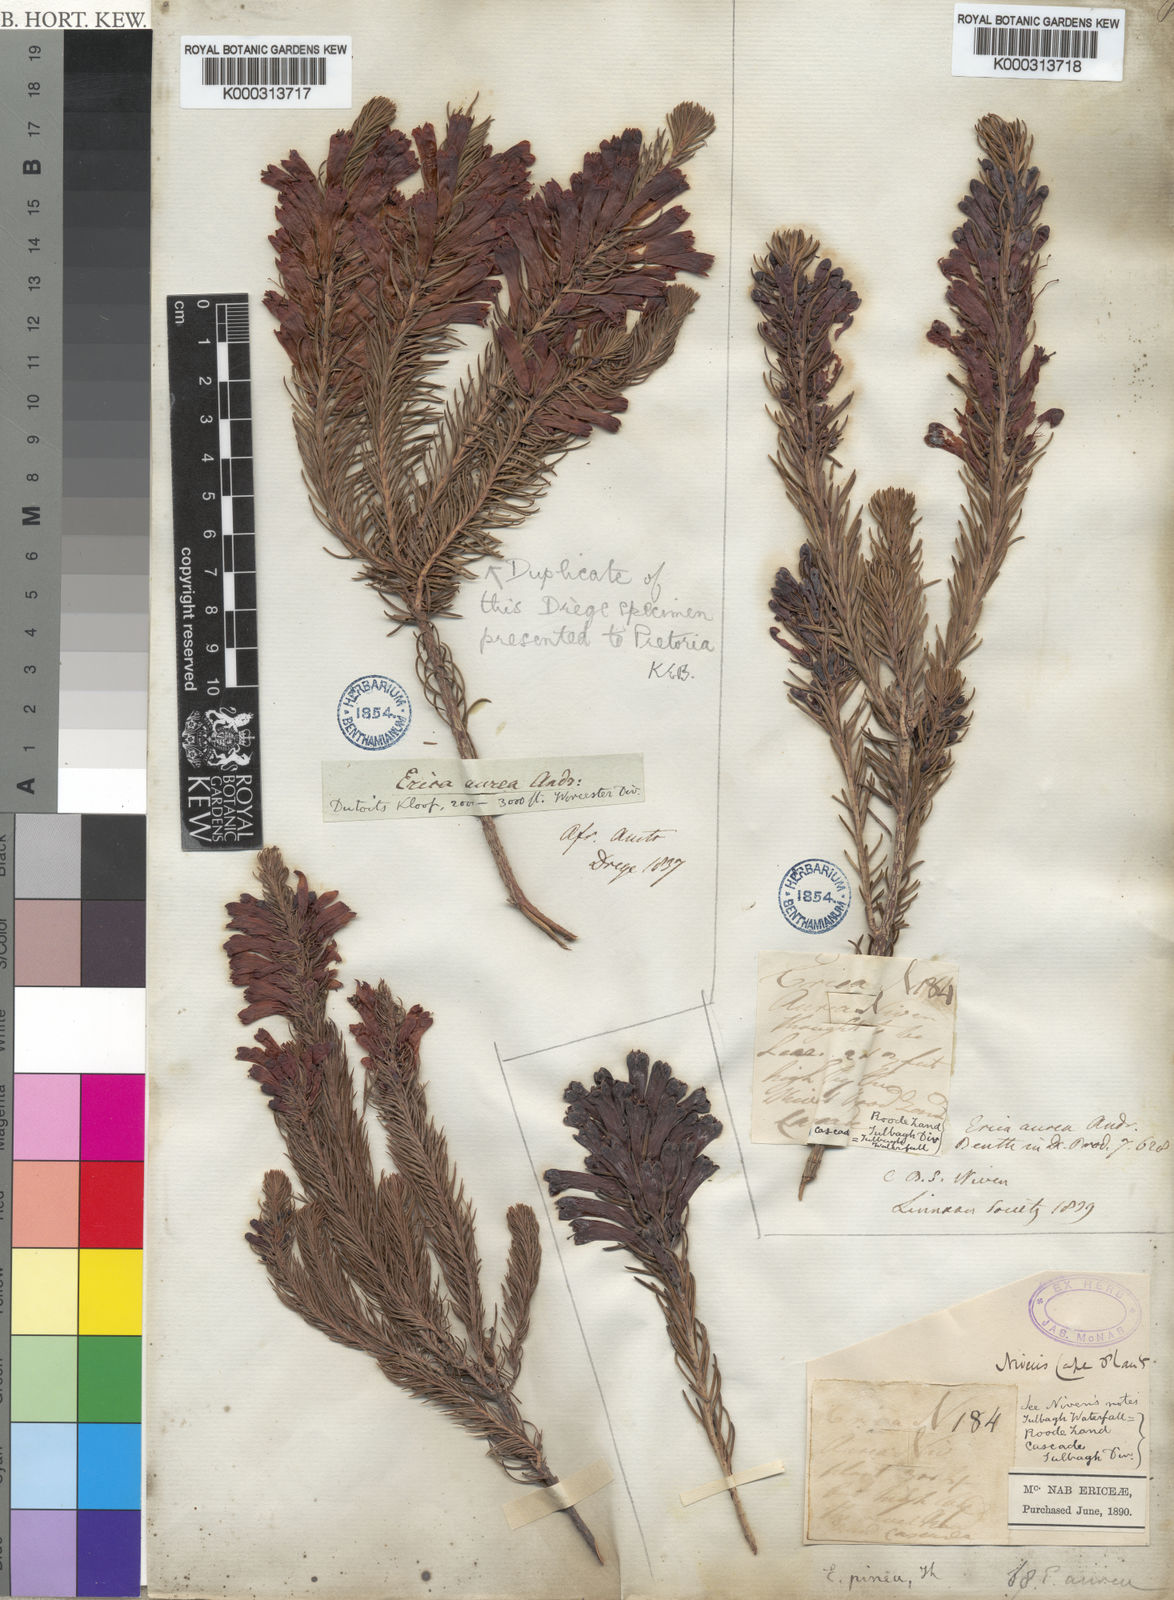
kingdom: Plantae
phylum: Tracheophyta
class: Magnoliopsida
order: Ericales
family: Ericaceae
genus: Erica
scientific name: Erica pinea
